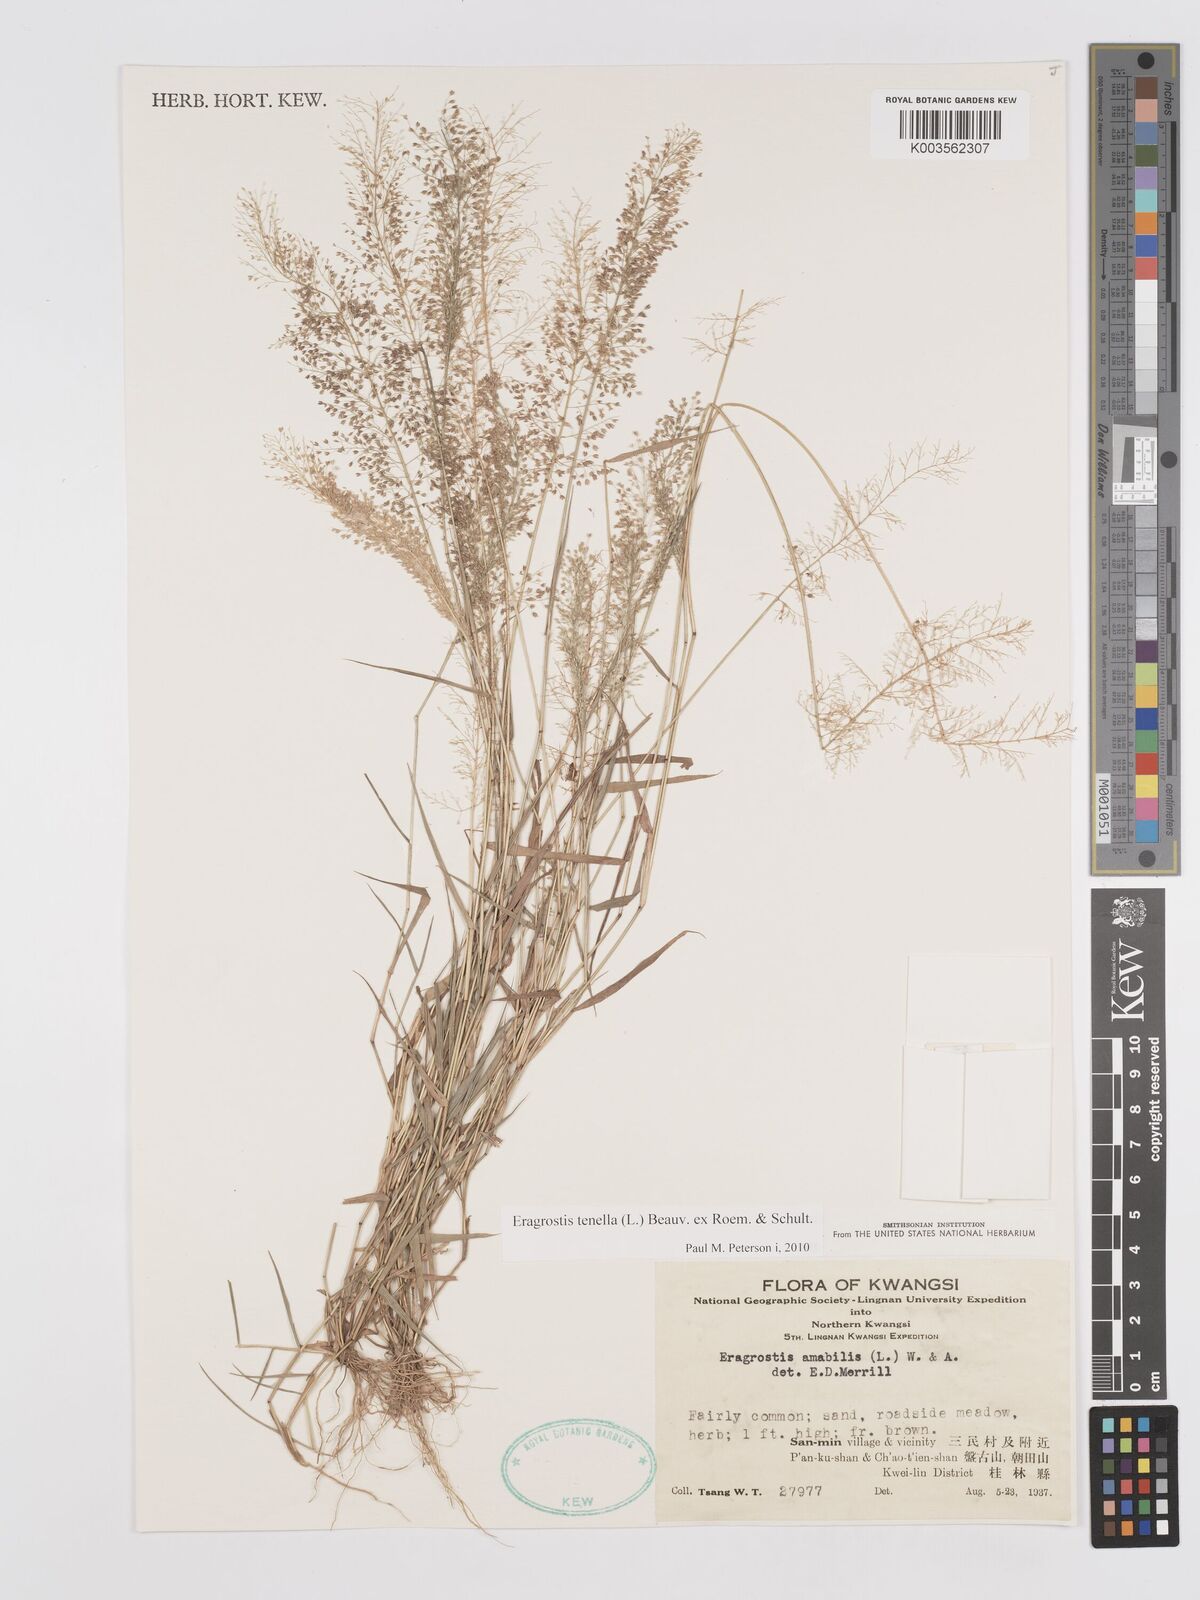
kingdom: Plantae
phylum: Tracheophyta
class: Liliopsida
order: Poales
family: Poaceae
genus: Eragrostis
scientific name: Eragrostis tenella
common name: Japanese lovegrass
